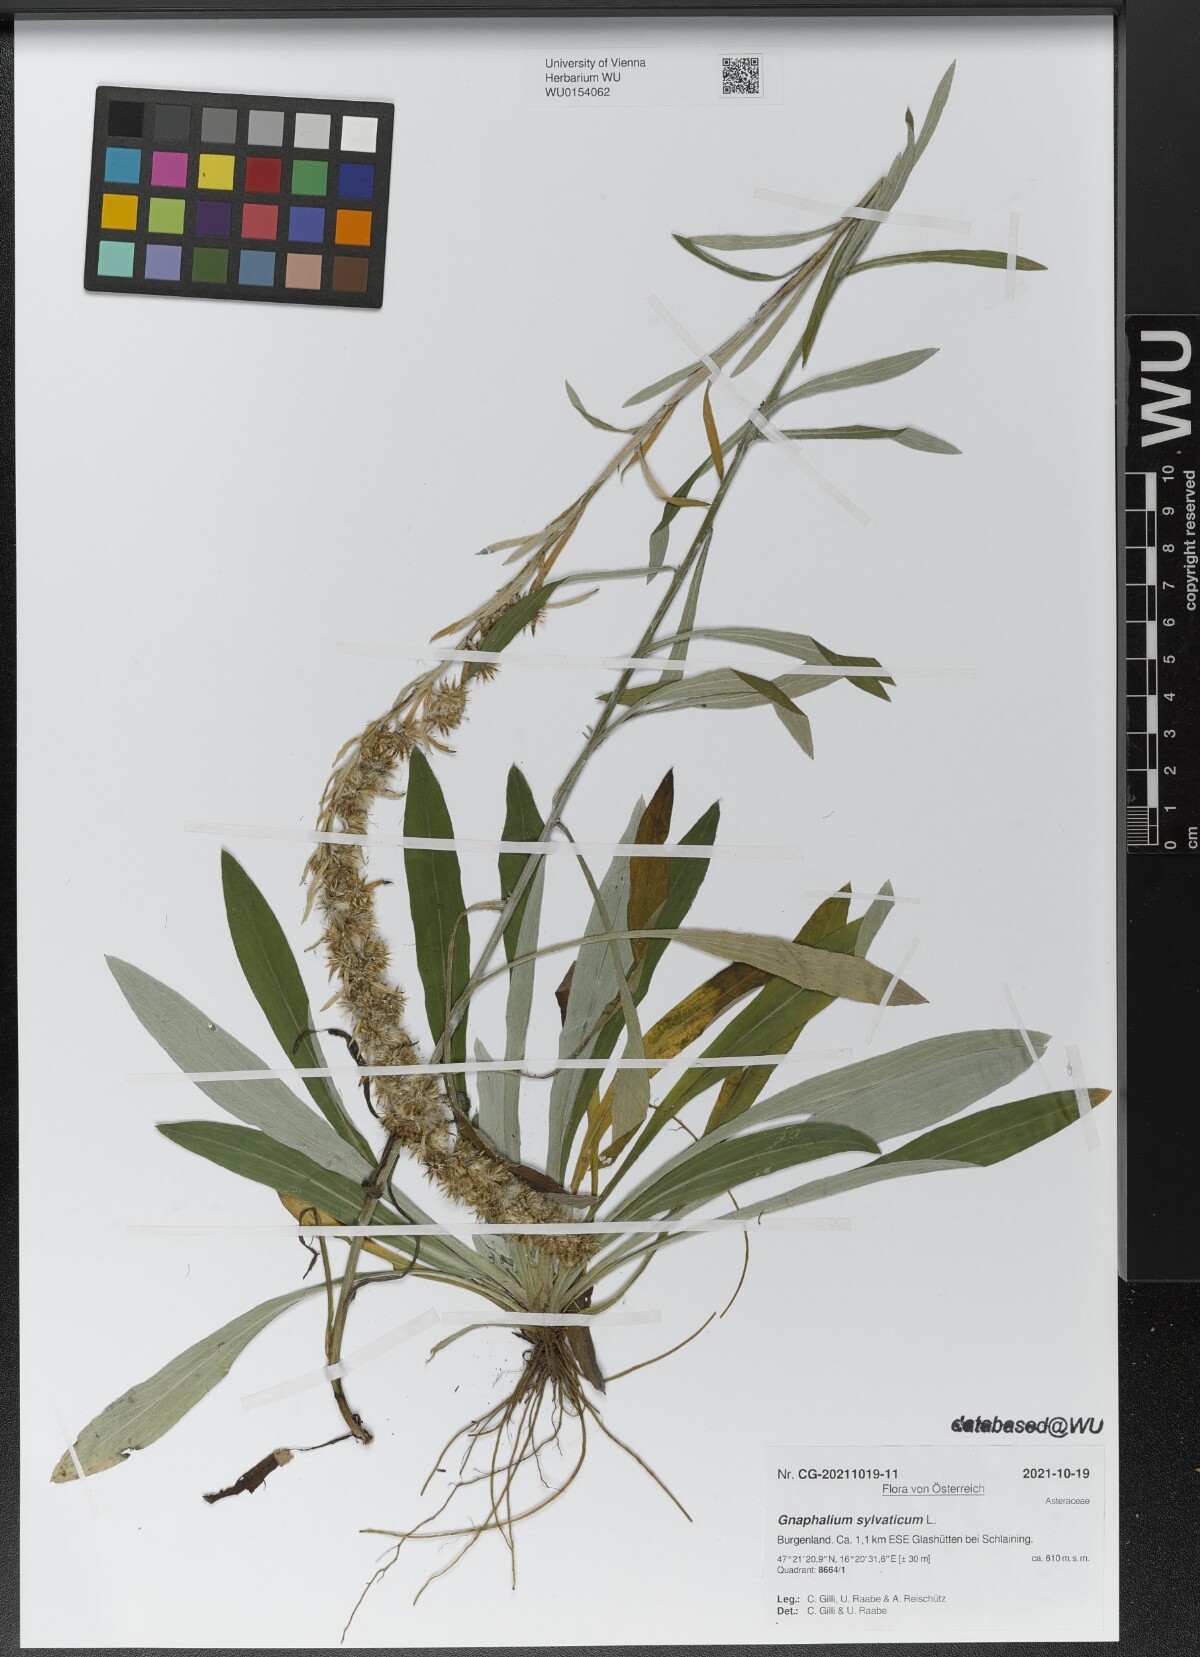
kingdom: Plantae
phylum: Tracheophyta
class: Magnoliopsida
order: Asterales
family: Asteraceae
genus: Omalotheca
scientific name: Omalotheca sylvatica
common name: Heath cudweed
